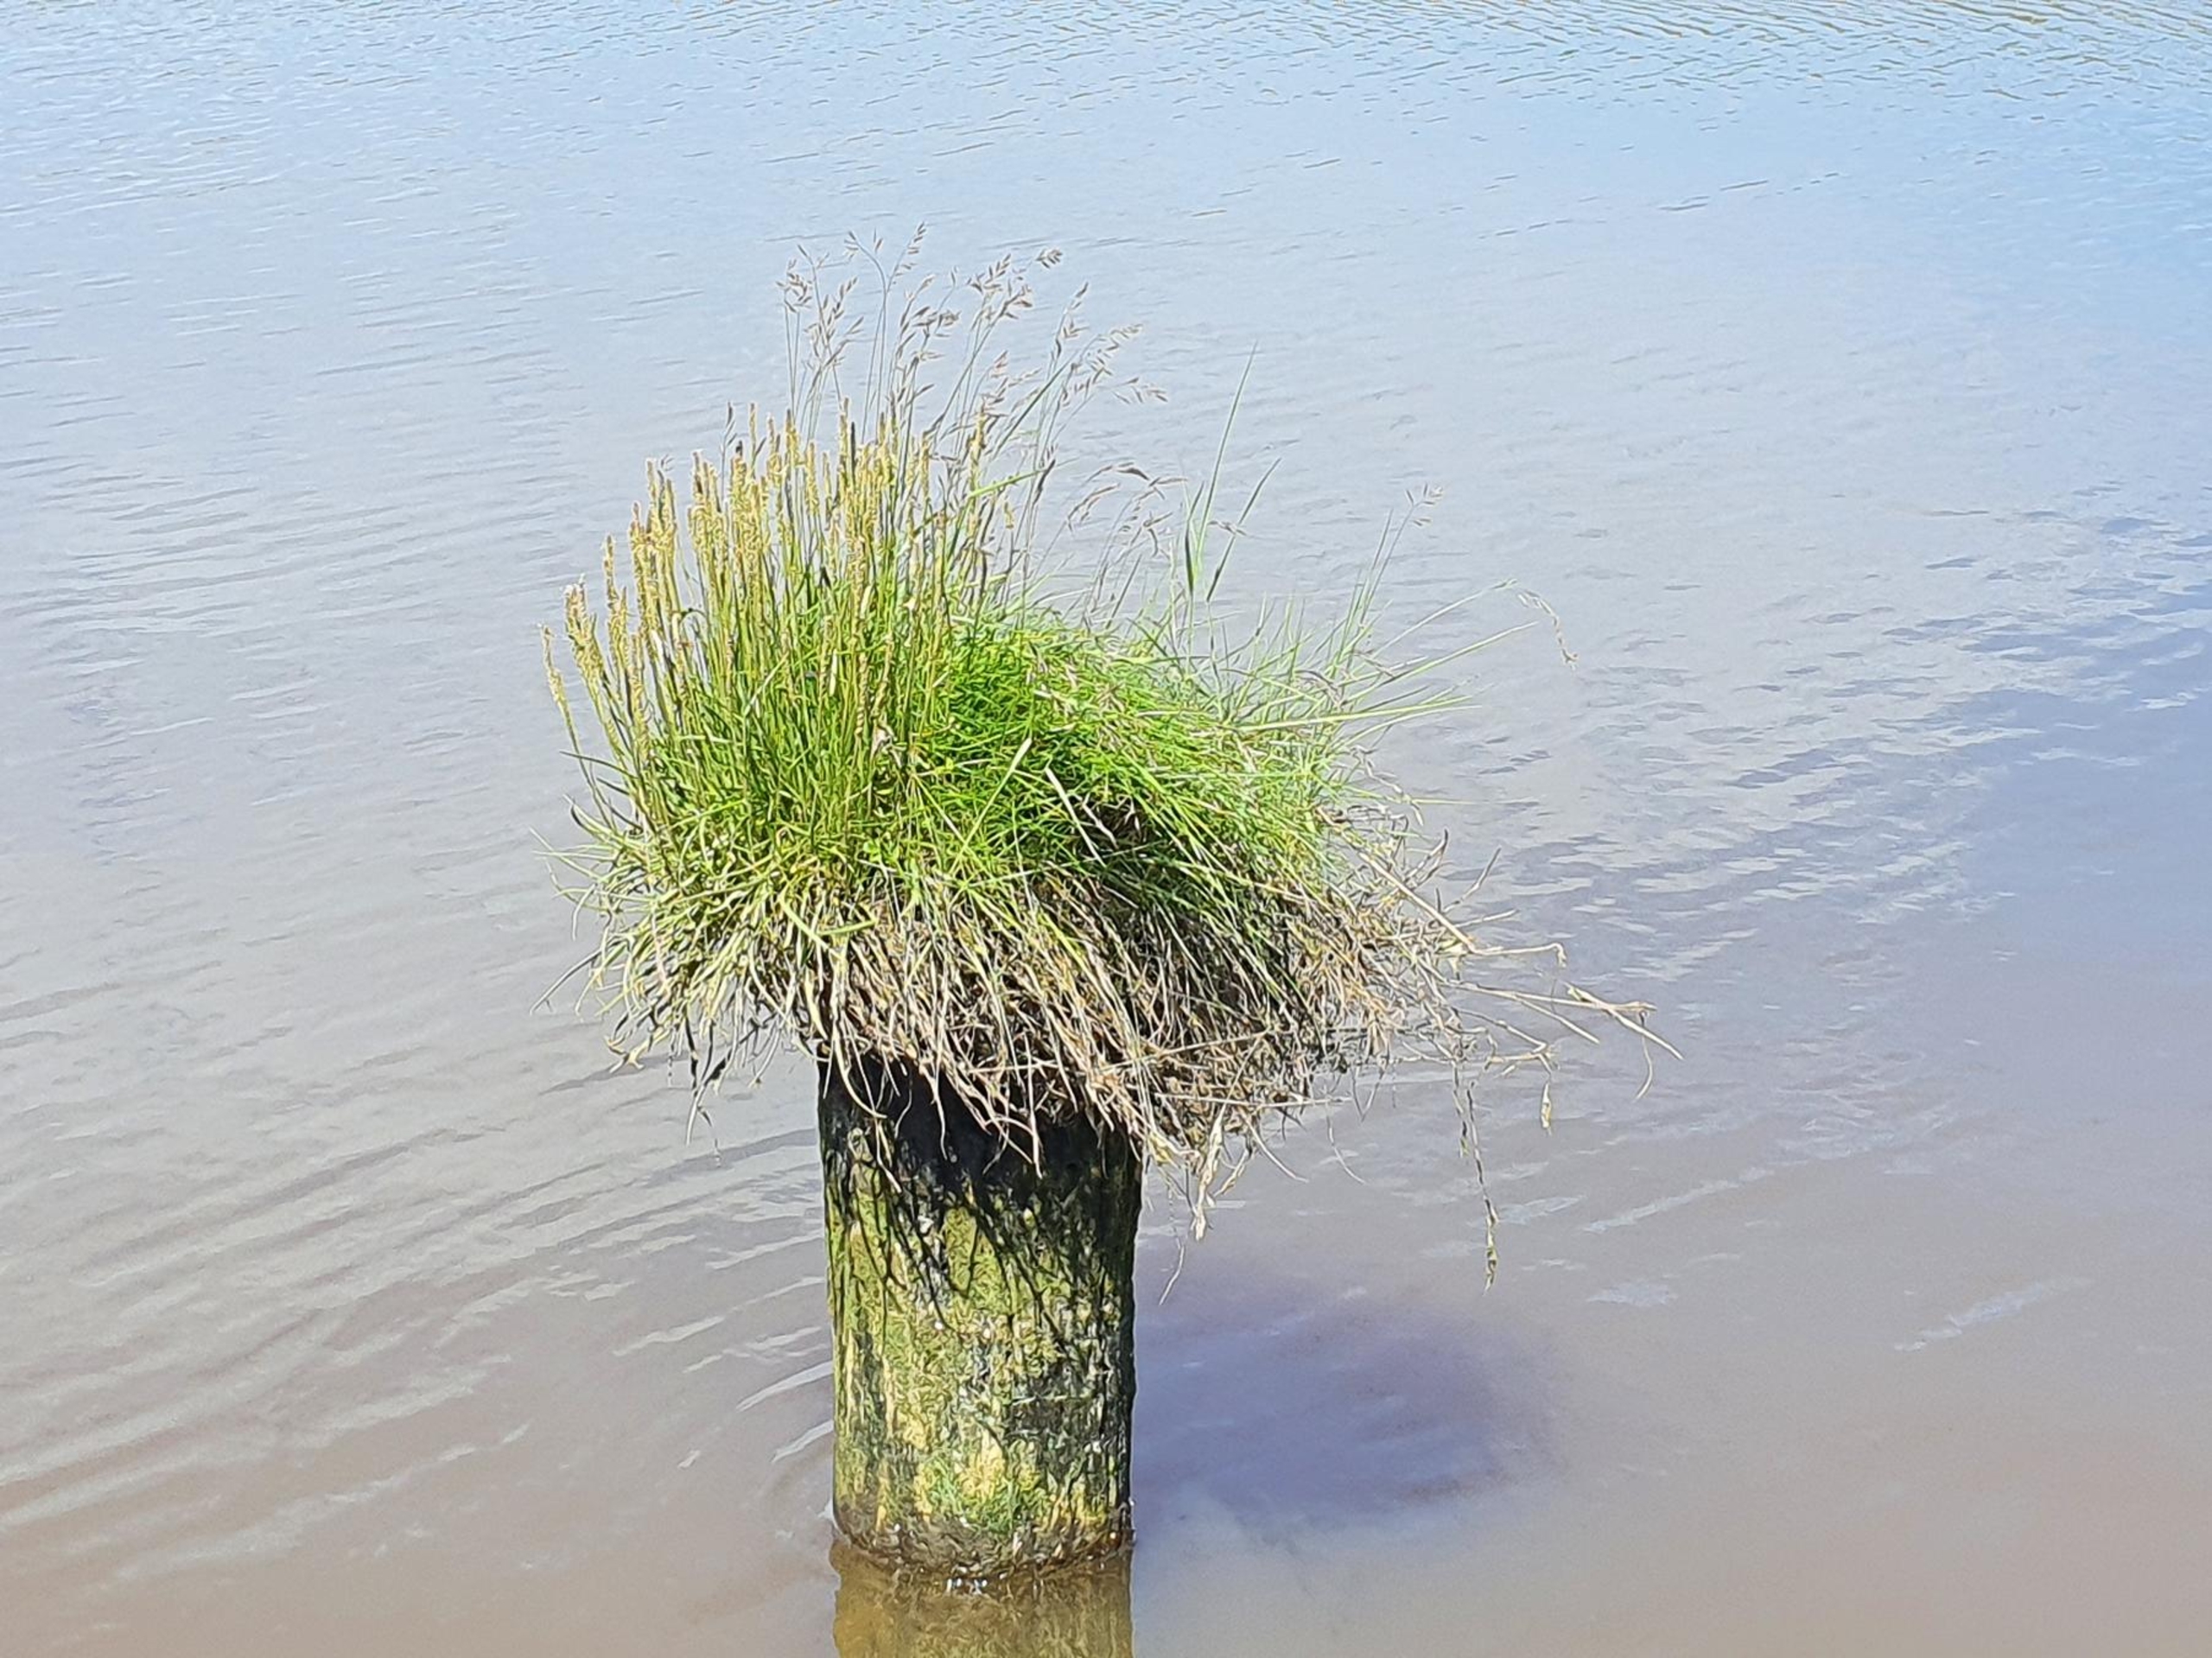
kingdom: Plantae
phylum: Tracheophyta
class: Magnoliopsida
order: Lamiales
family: Plantaginaceae
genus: Plantago
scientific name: Plantago maritima
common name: Strand-vejbred
